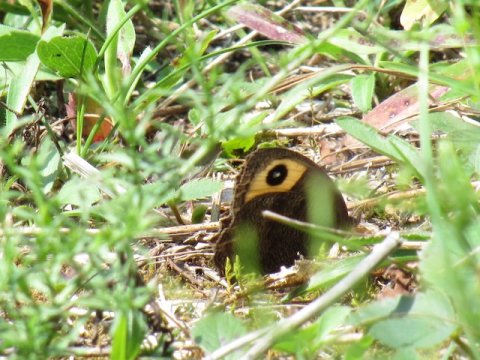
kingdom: Animalia
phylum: Arthropoda
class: Insecta
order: Lepidoptera
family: Nymphalidae
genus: Cercyonis
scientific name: Cercyonis pegala
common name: Common Wood-Nymph
